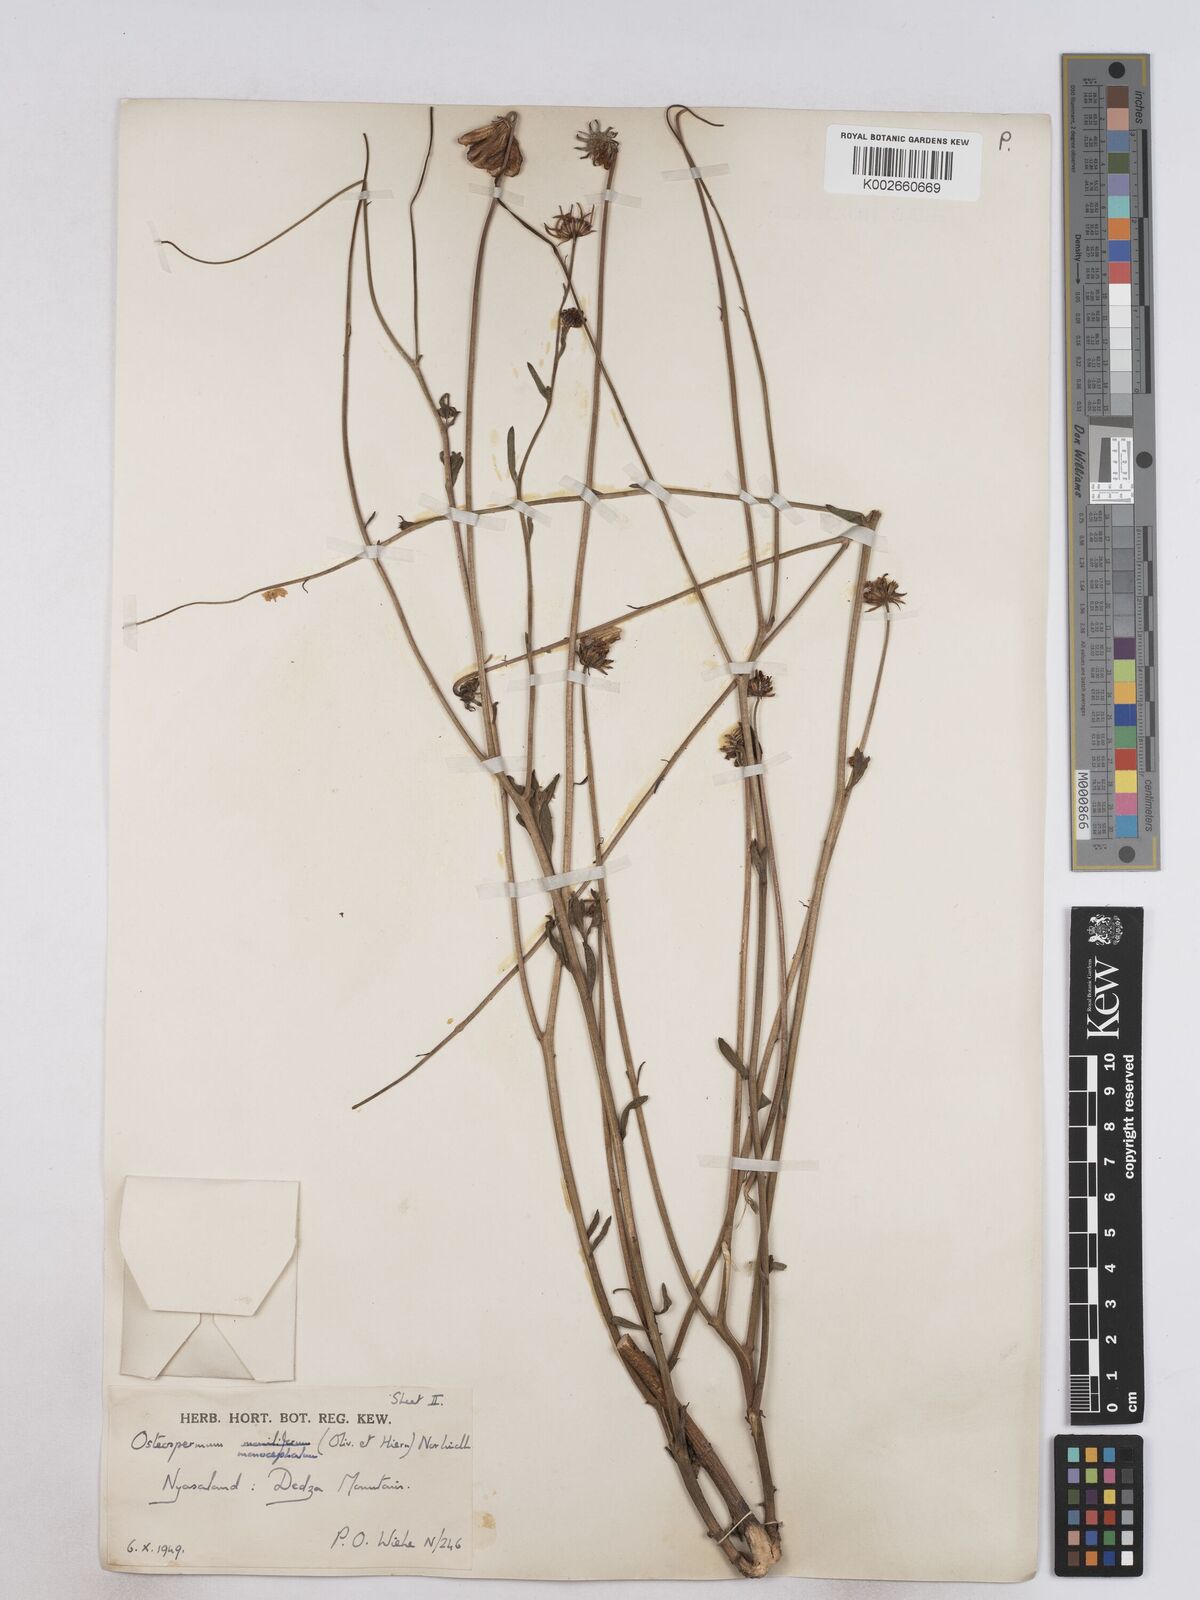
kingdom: Plantae
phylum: Tracheophyta
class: Magnoliopsida
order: Asterales
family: Asteraceae
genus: Osteospermum
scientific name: Osteospermum monocephalum
